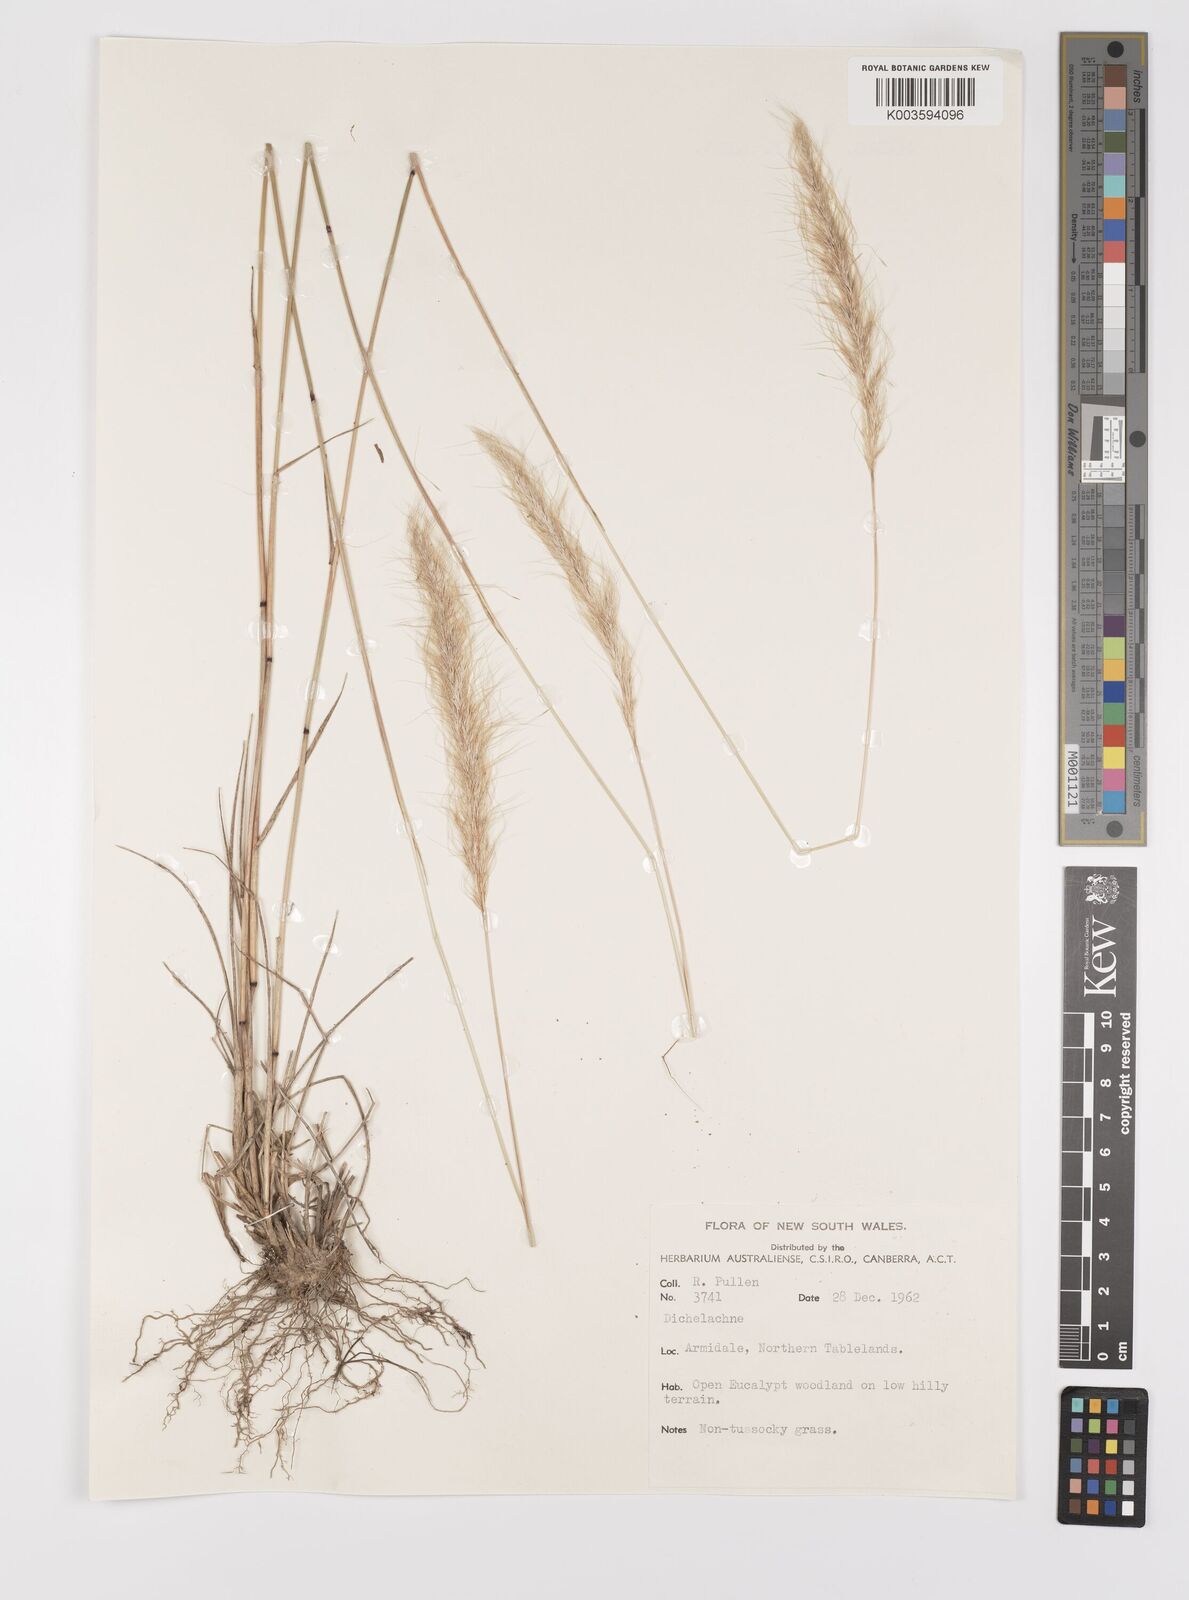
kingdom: Plantae
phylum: Tracheophyta
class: Liliopsida
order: Poales
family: Poaceae
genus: Dichelachne
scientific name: Dichelachne
